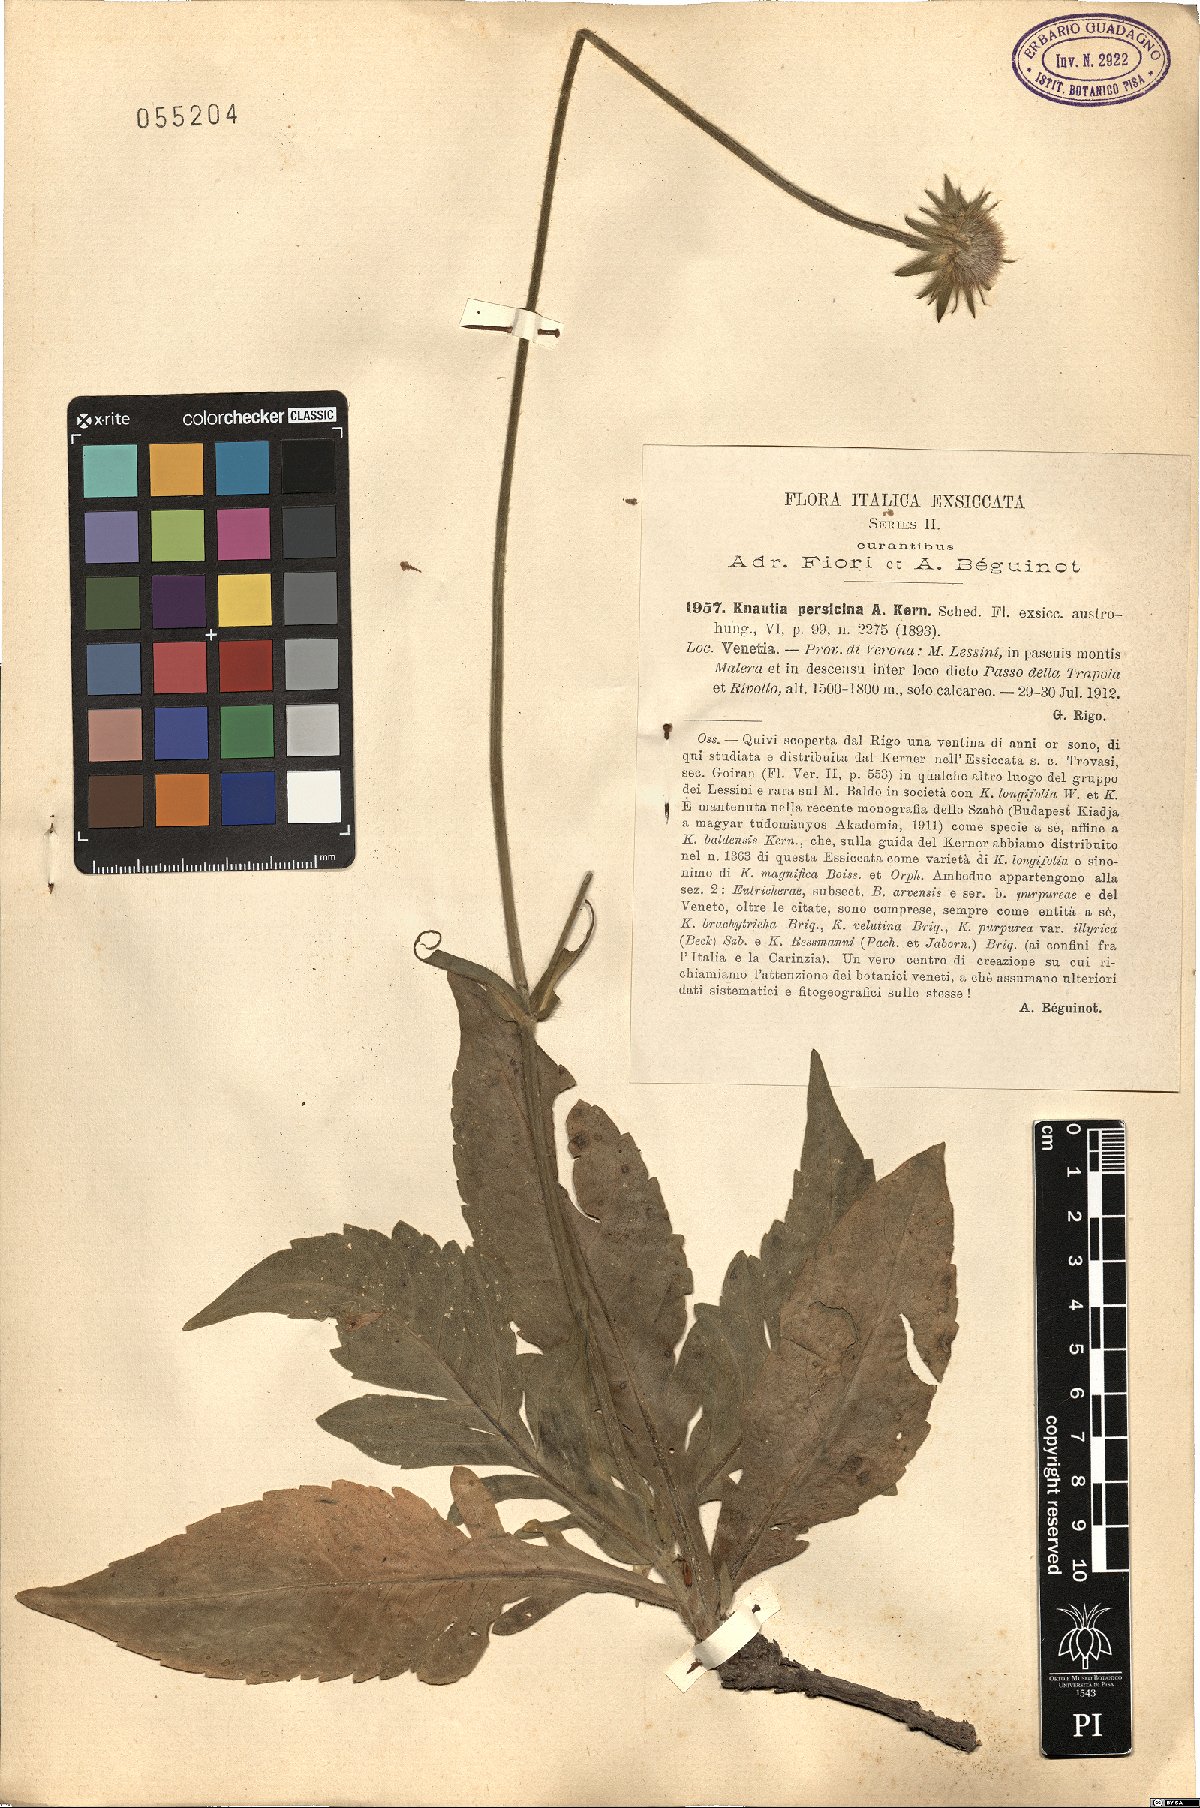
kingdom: Plantae
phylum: Tracheophyta
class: Magnoliopsida
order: Dipsacales
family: Caprifoliaceae
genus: Knautia
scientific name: Knautia persicina
